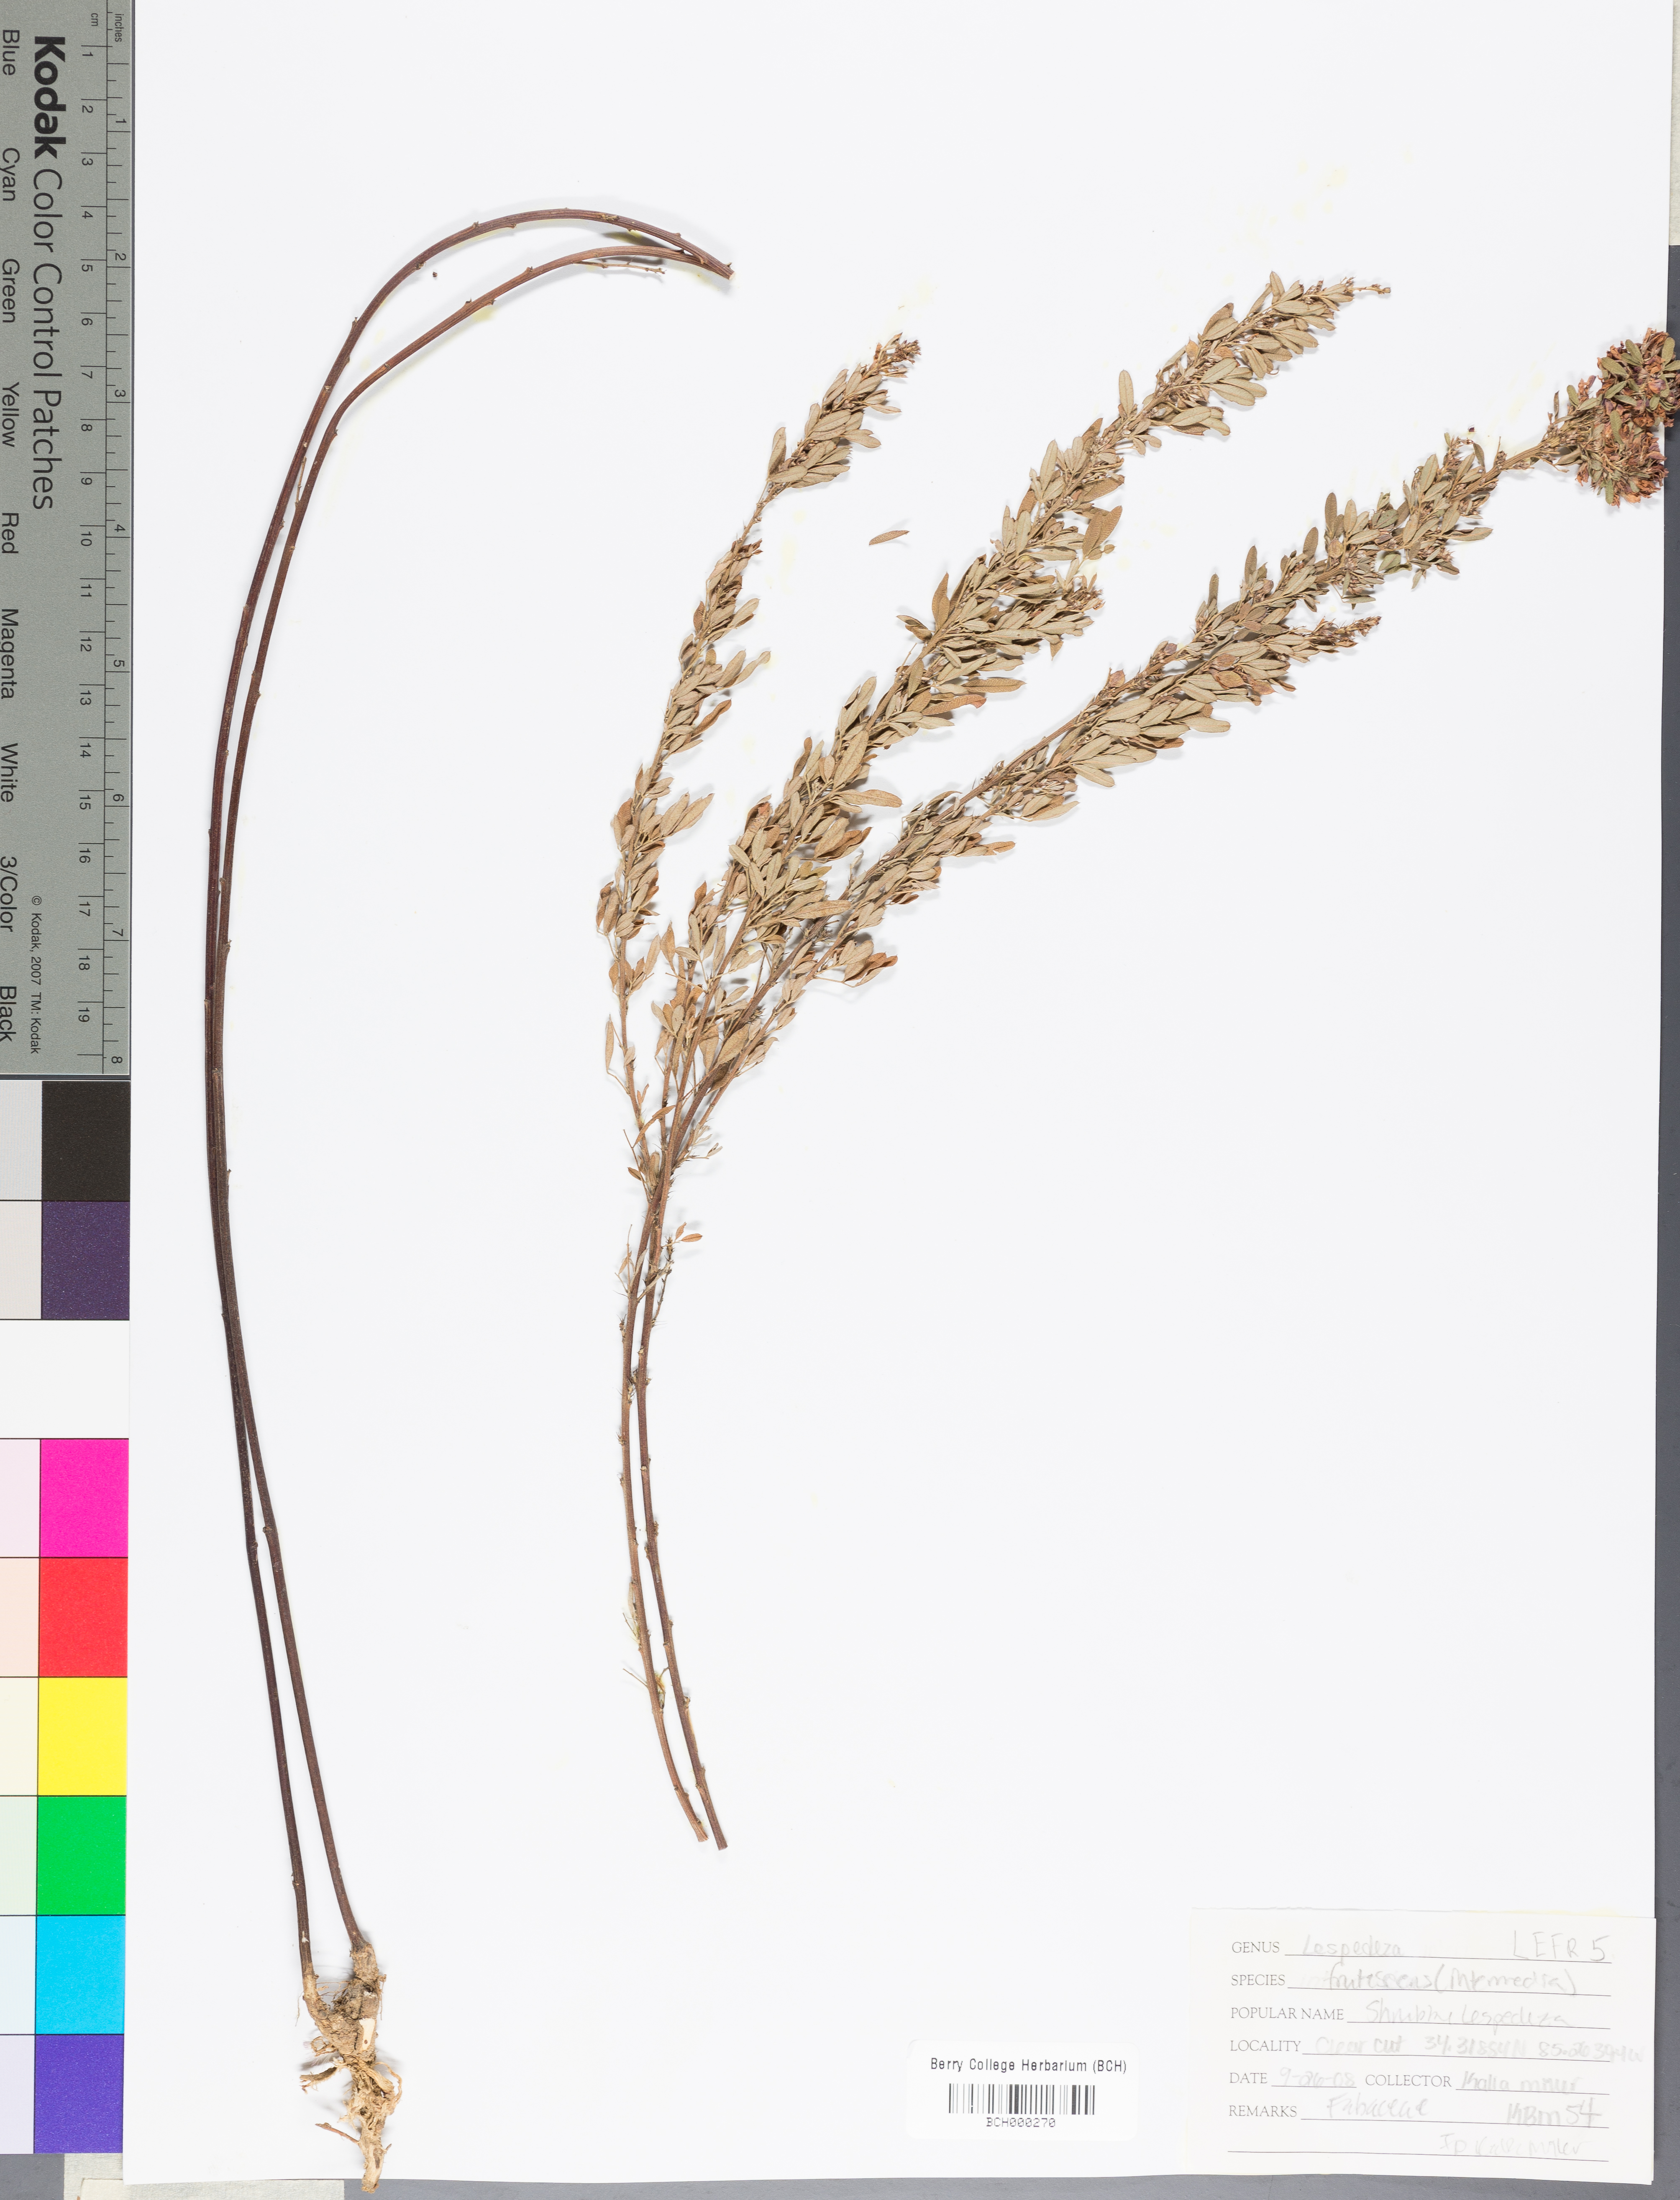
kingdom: Plantae
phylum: Tracheophyta
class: Magnoliopsida
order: Fabales
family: Fabaceae
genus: Lespedeza
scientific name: Lespedeza violacea
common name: Wand bush-clover
